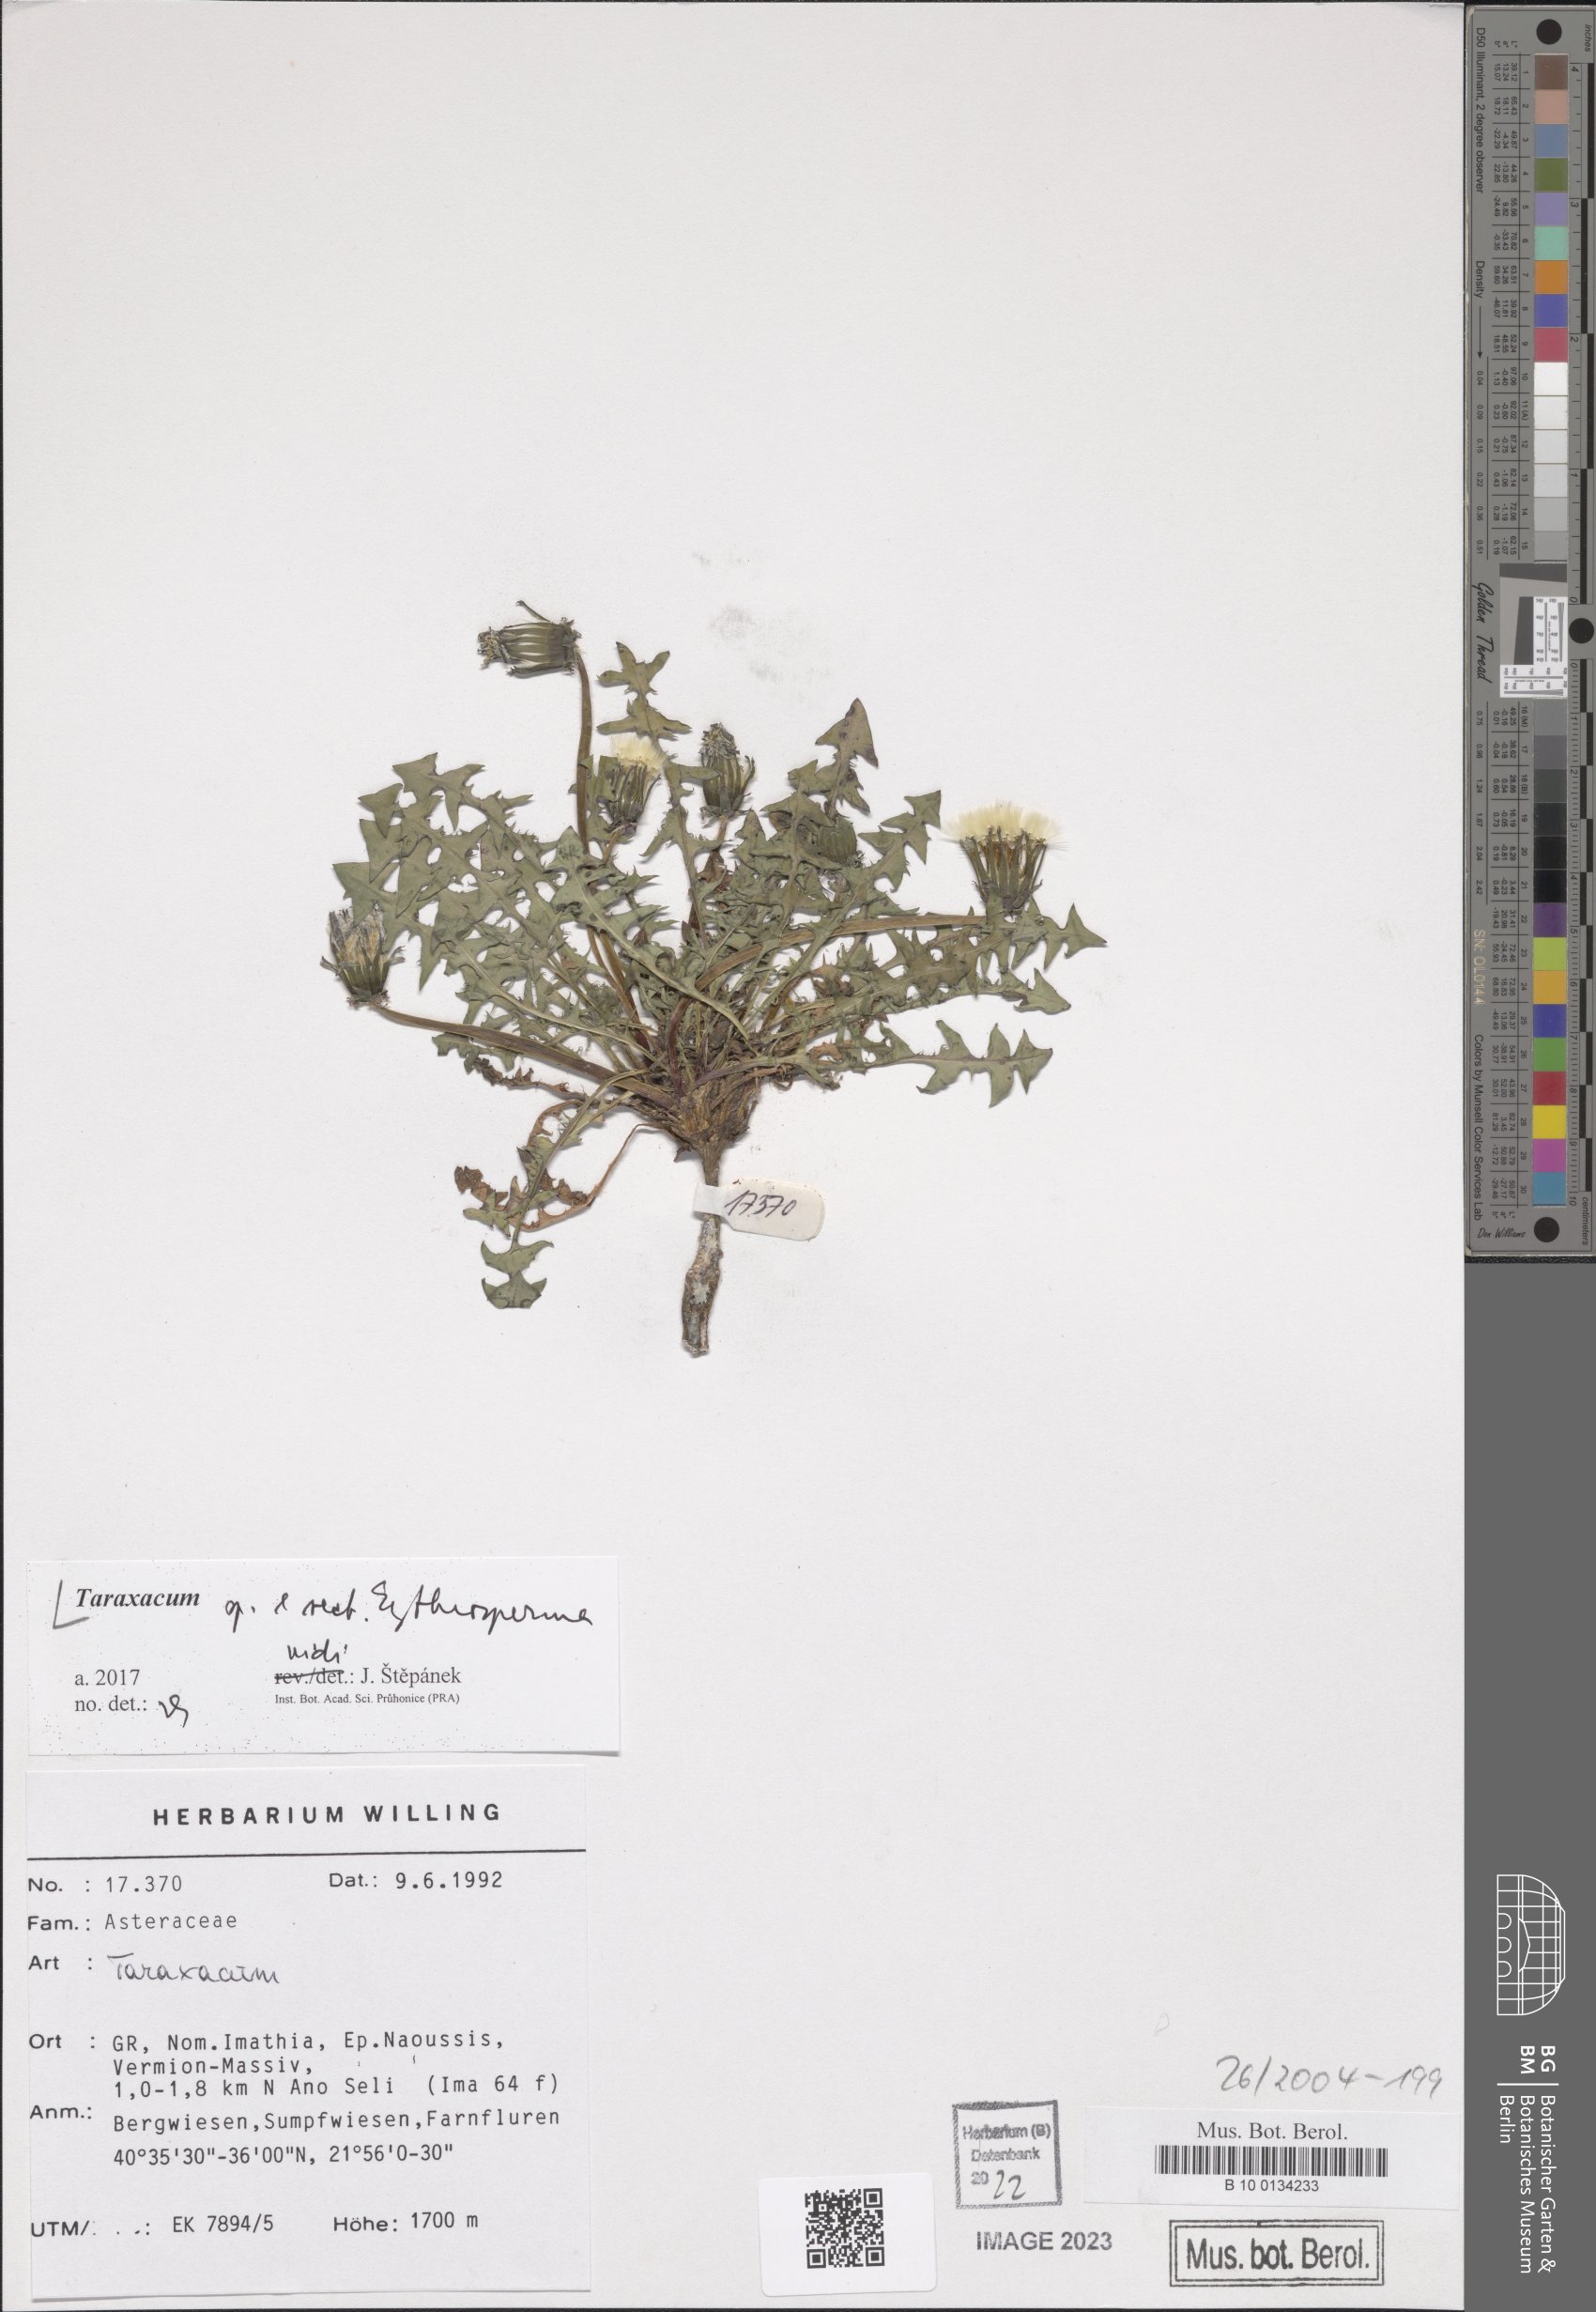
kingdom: Plantae
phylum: Tracheophyta
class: Magnoliopsida
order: Asterales
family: Asteraceae
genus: Taraxacum
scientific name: Taraxacum
